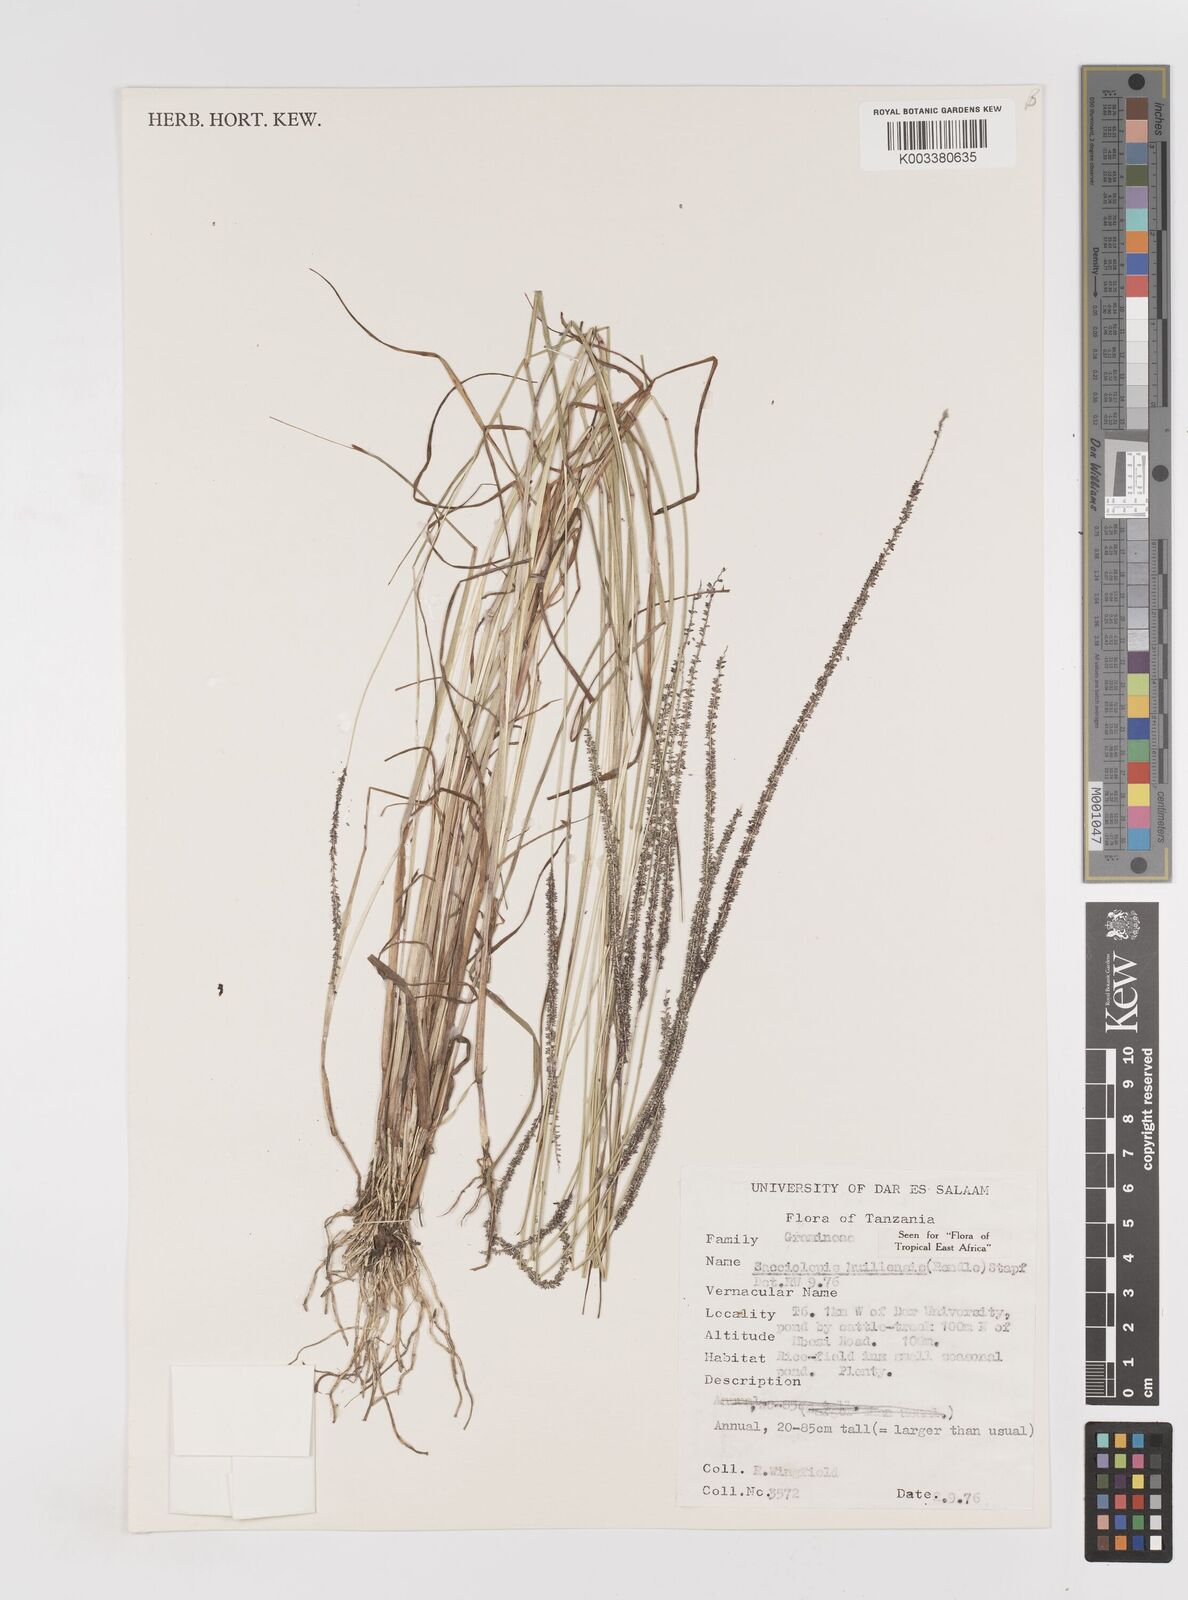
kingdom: Plantae
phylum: Tracheophyta
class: Liliopsida
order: Poales
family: Poaceae
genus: Sacciolepis
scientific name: Sacciolepis myosuroides
